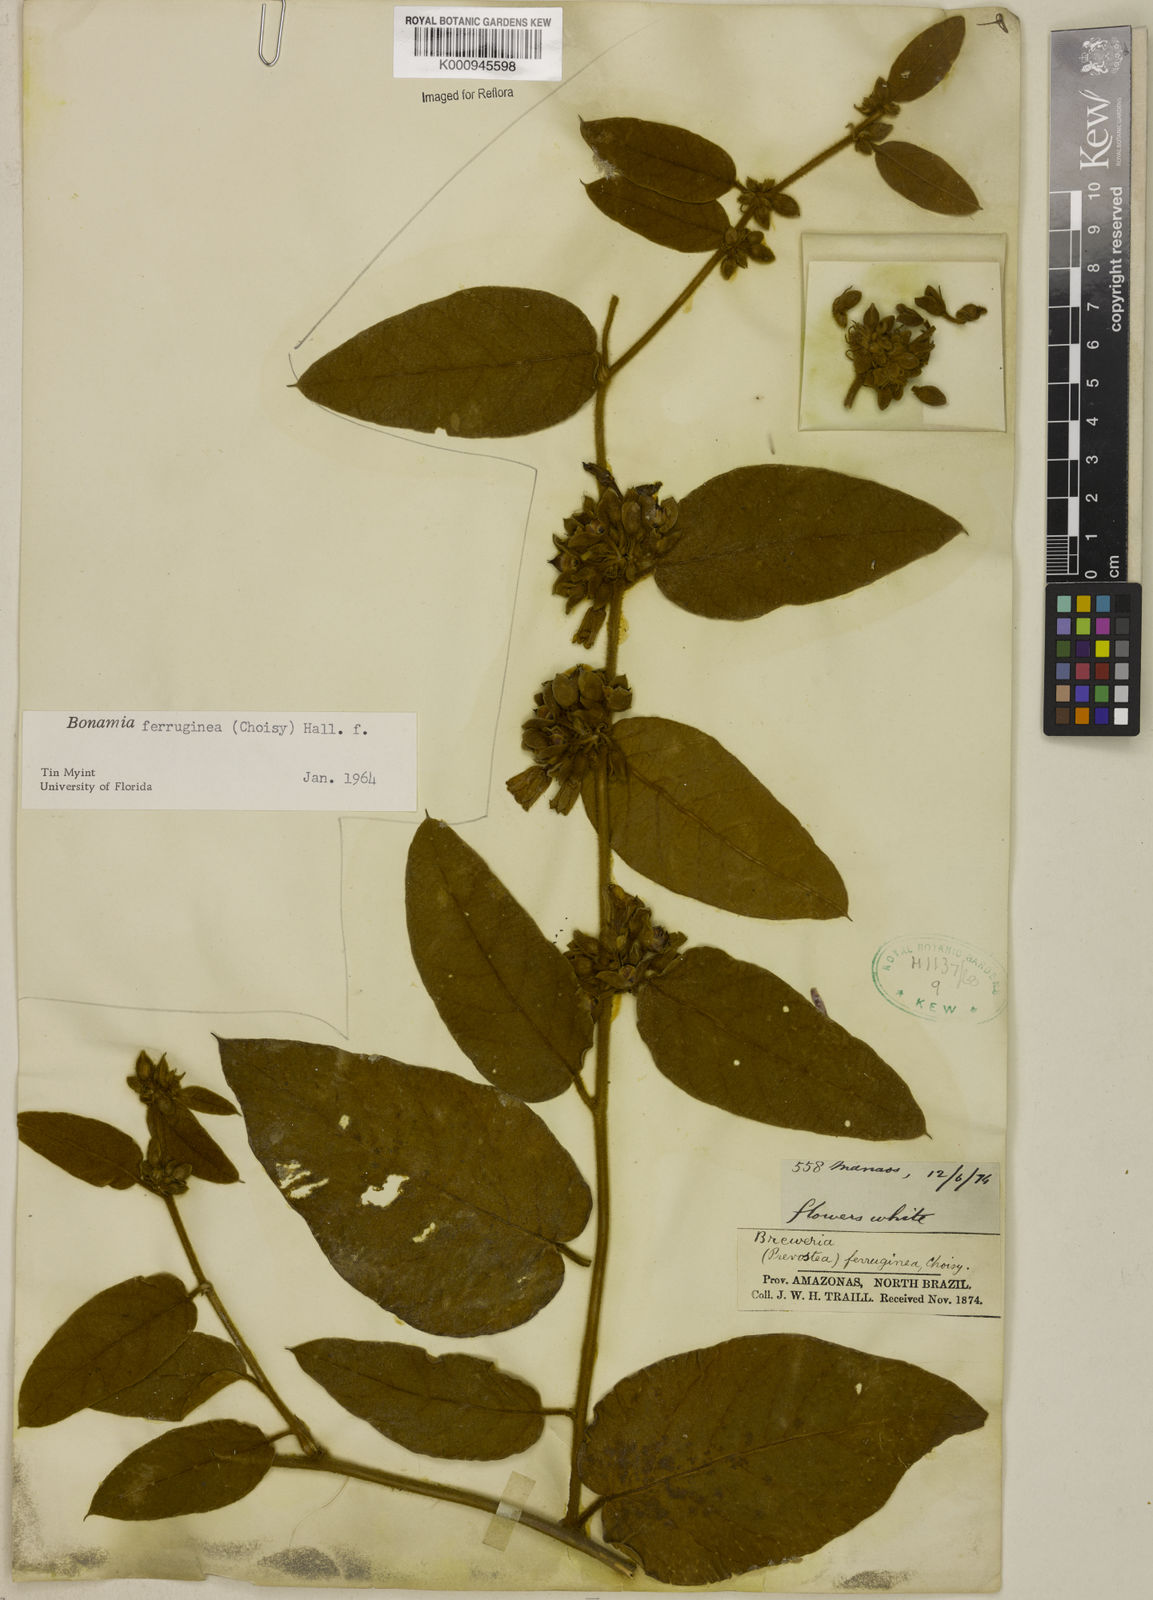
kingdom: Plantae
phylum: Tracheophyta
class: Magnoliopsida
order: Solanales
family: Convolvulaceae
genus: Bonamia
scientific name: Bonamia ferruginea
